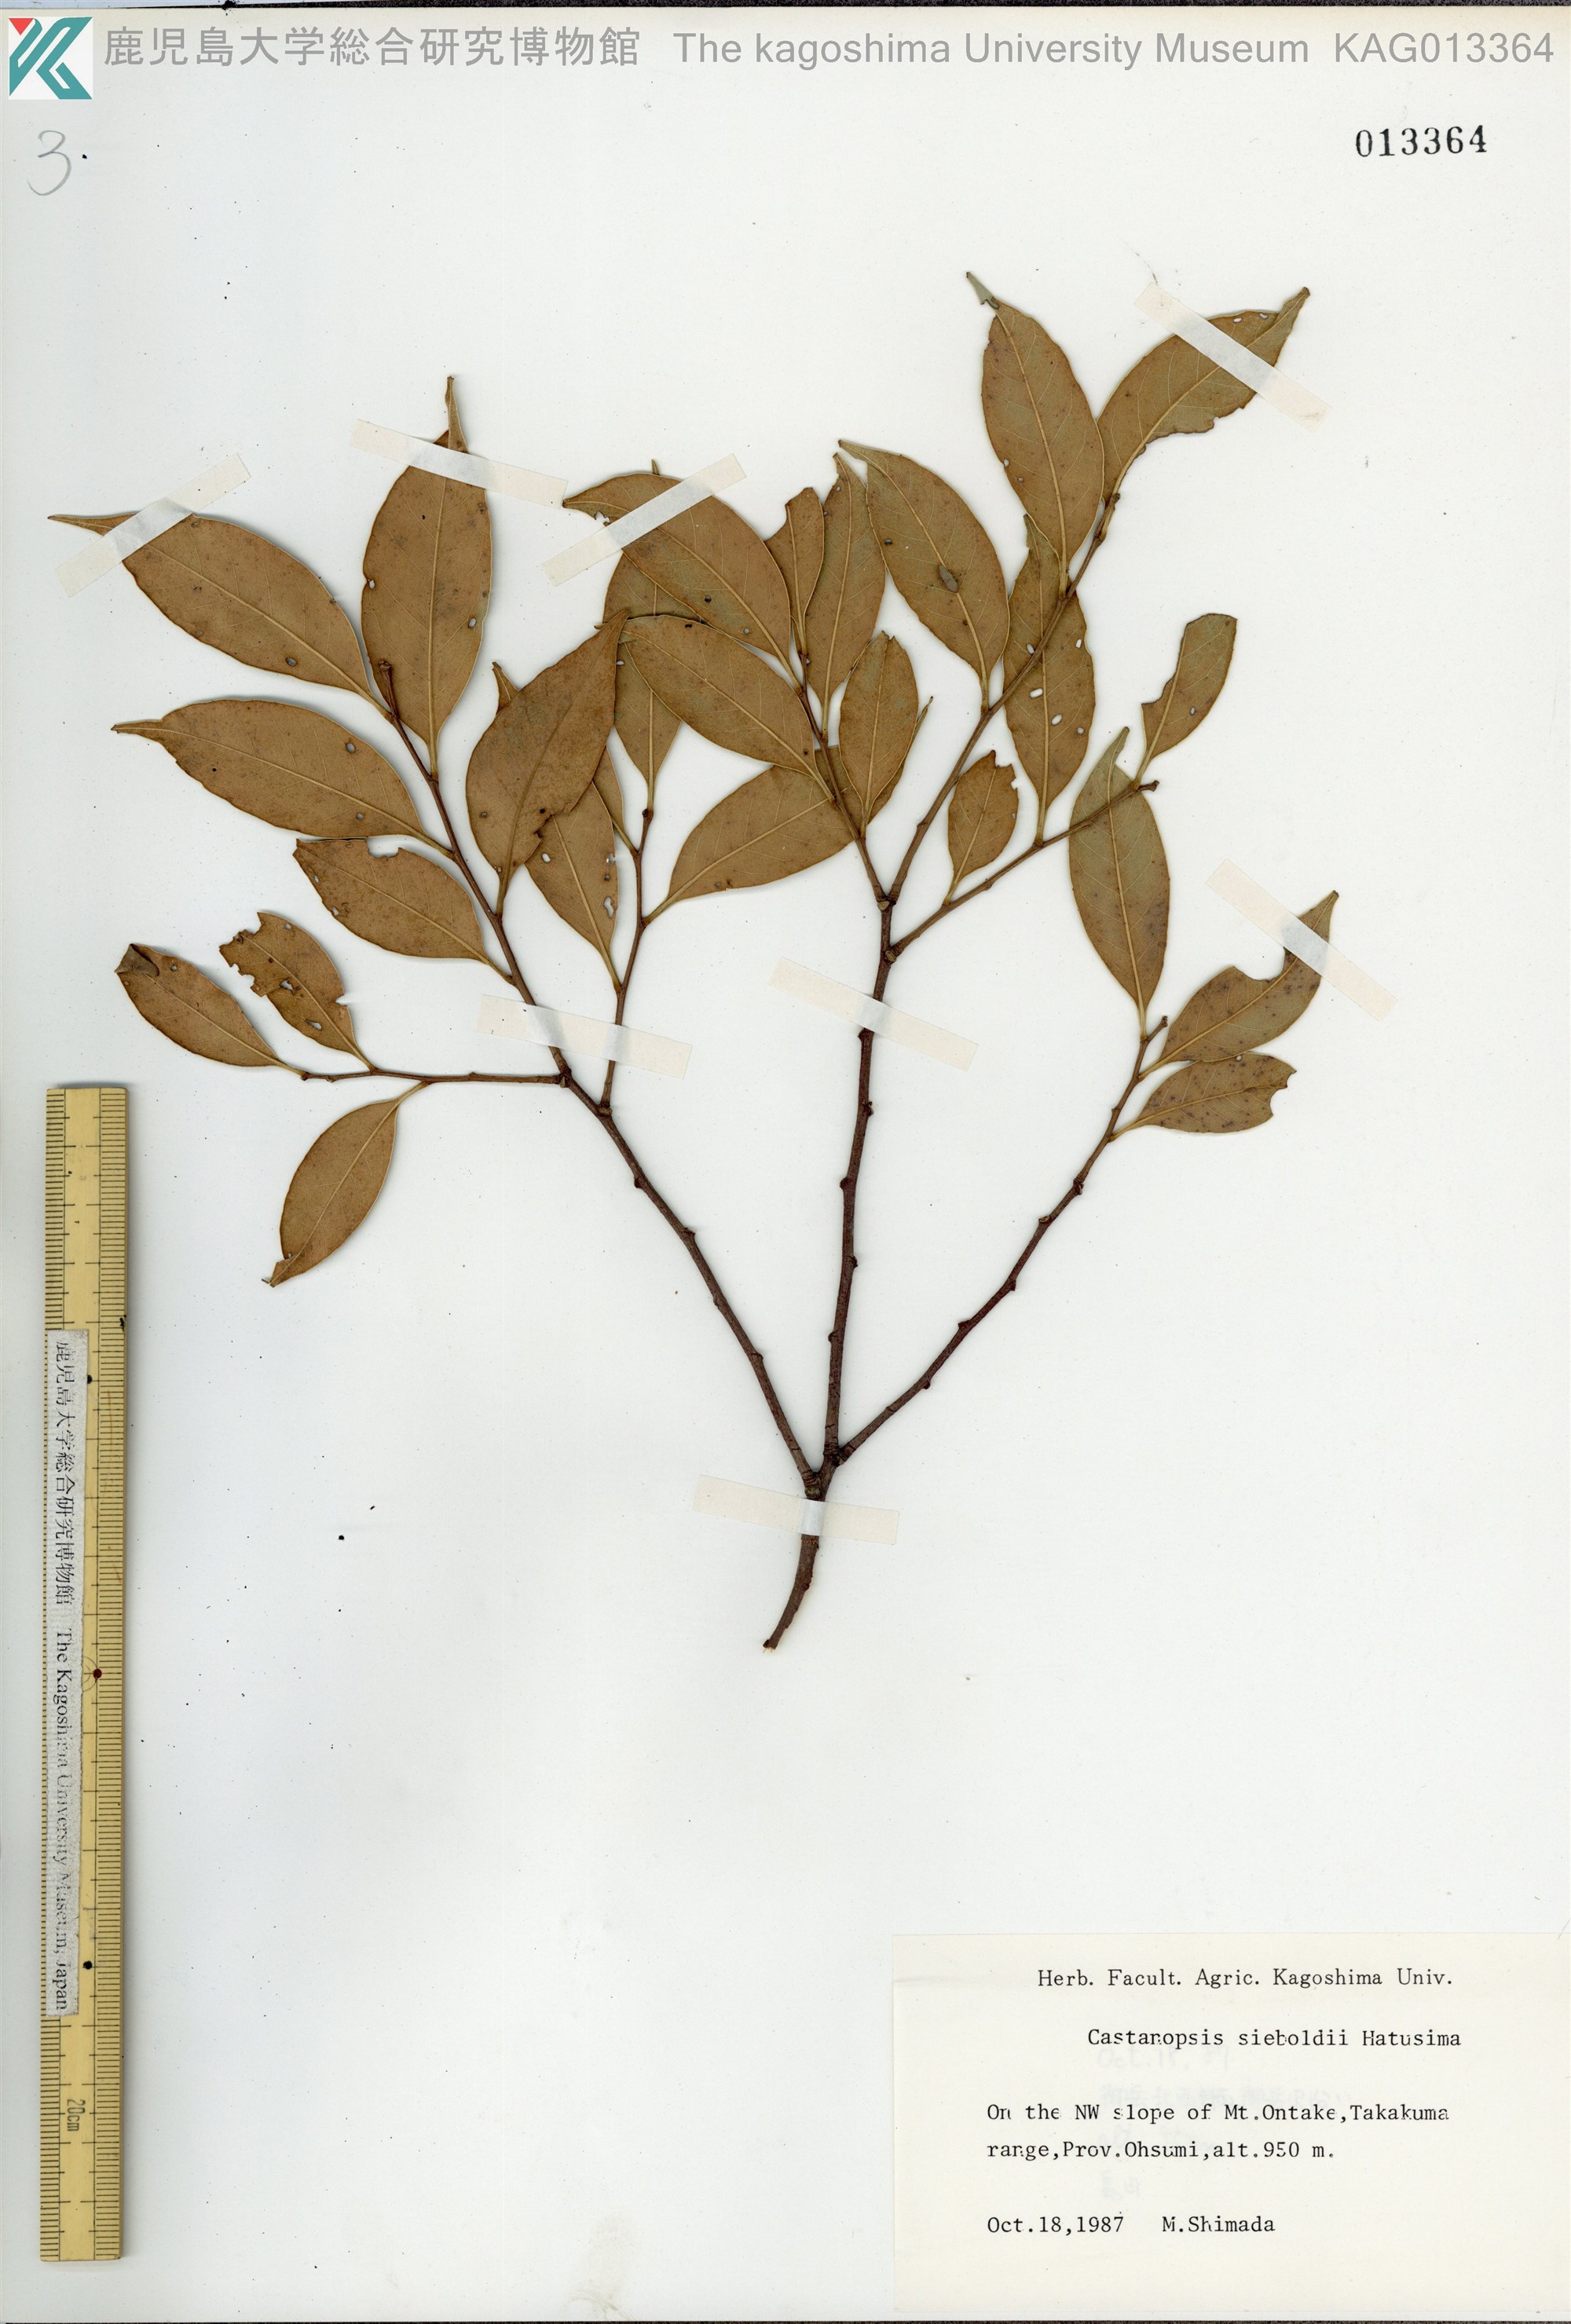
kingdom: Plantae
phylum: Tracheophyta
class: Magnoliopsida
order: Fagales
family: Fagaceae
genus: Castanopsis
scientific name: Castanopsis sieboldii
